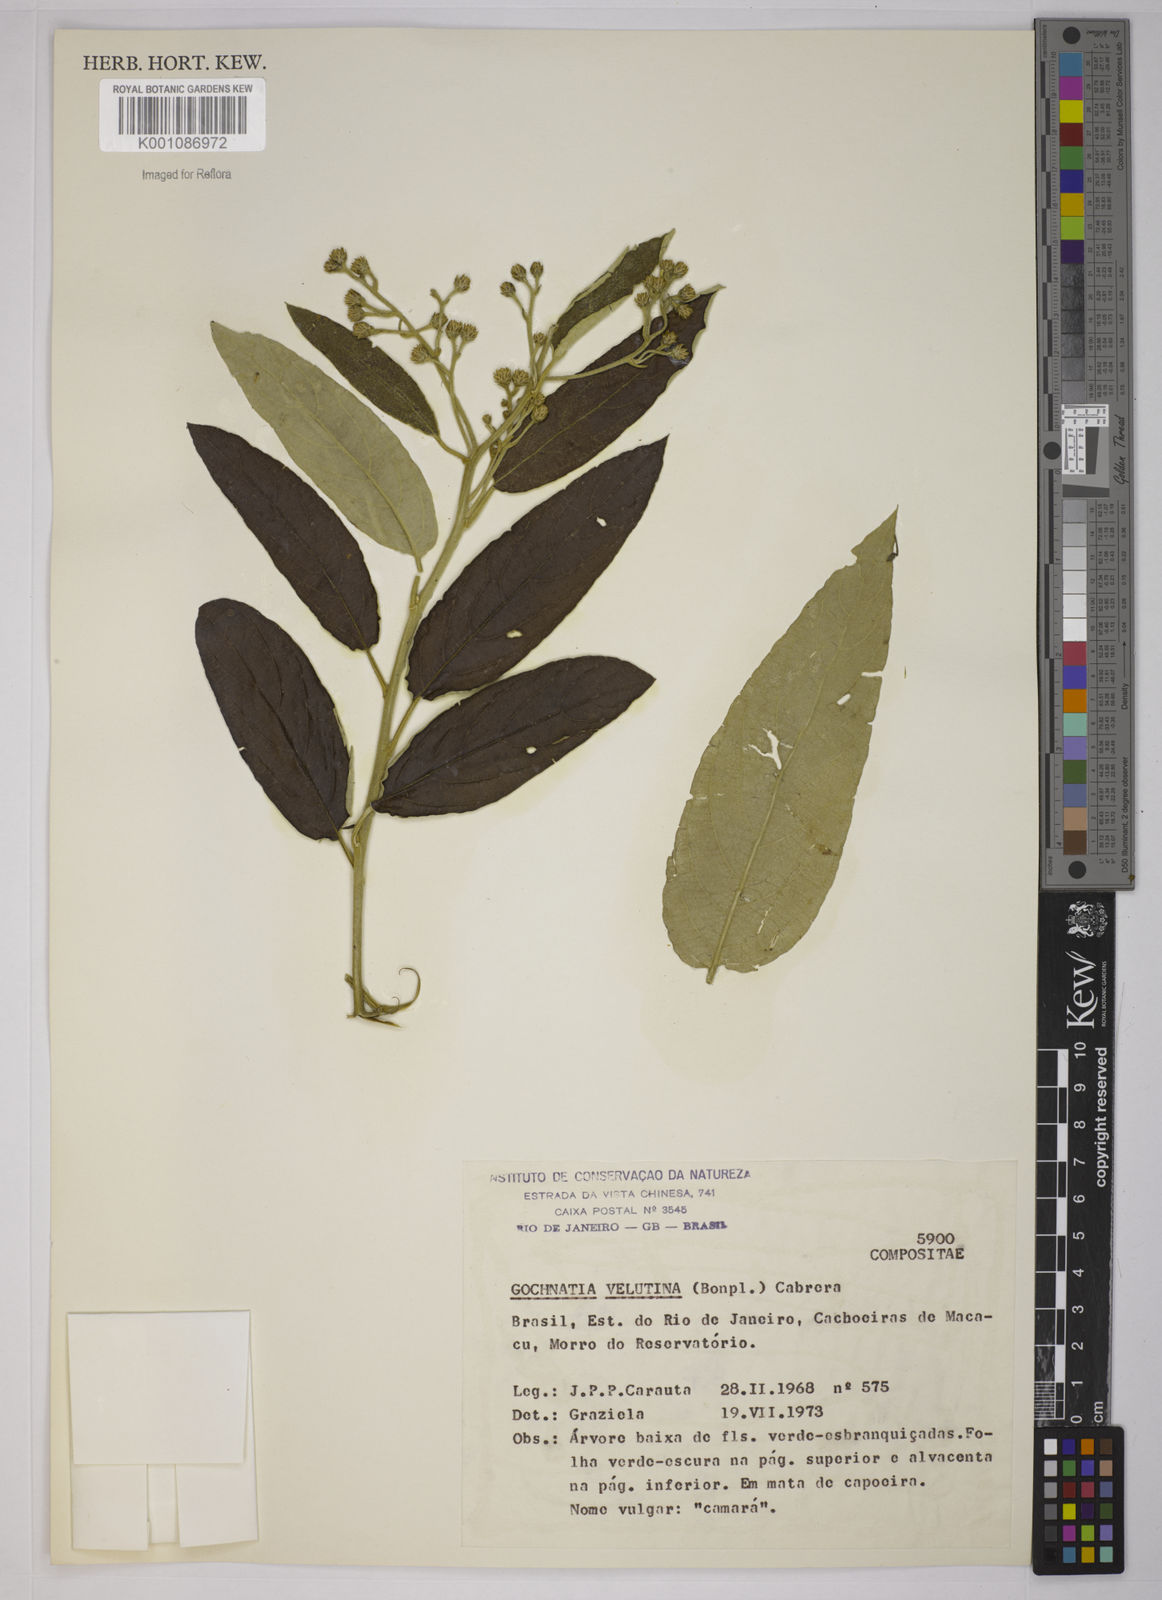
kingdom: Plantae
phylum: Tracheophyta
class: Magnoliopsida
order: Asterales
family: Asteraceae
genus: Moquiniastrum
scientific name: Moquiniastrum polymorphum
